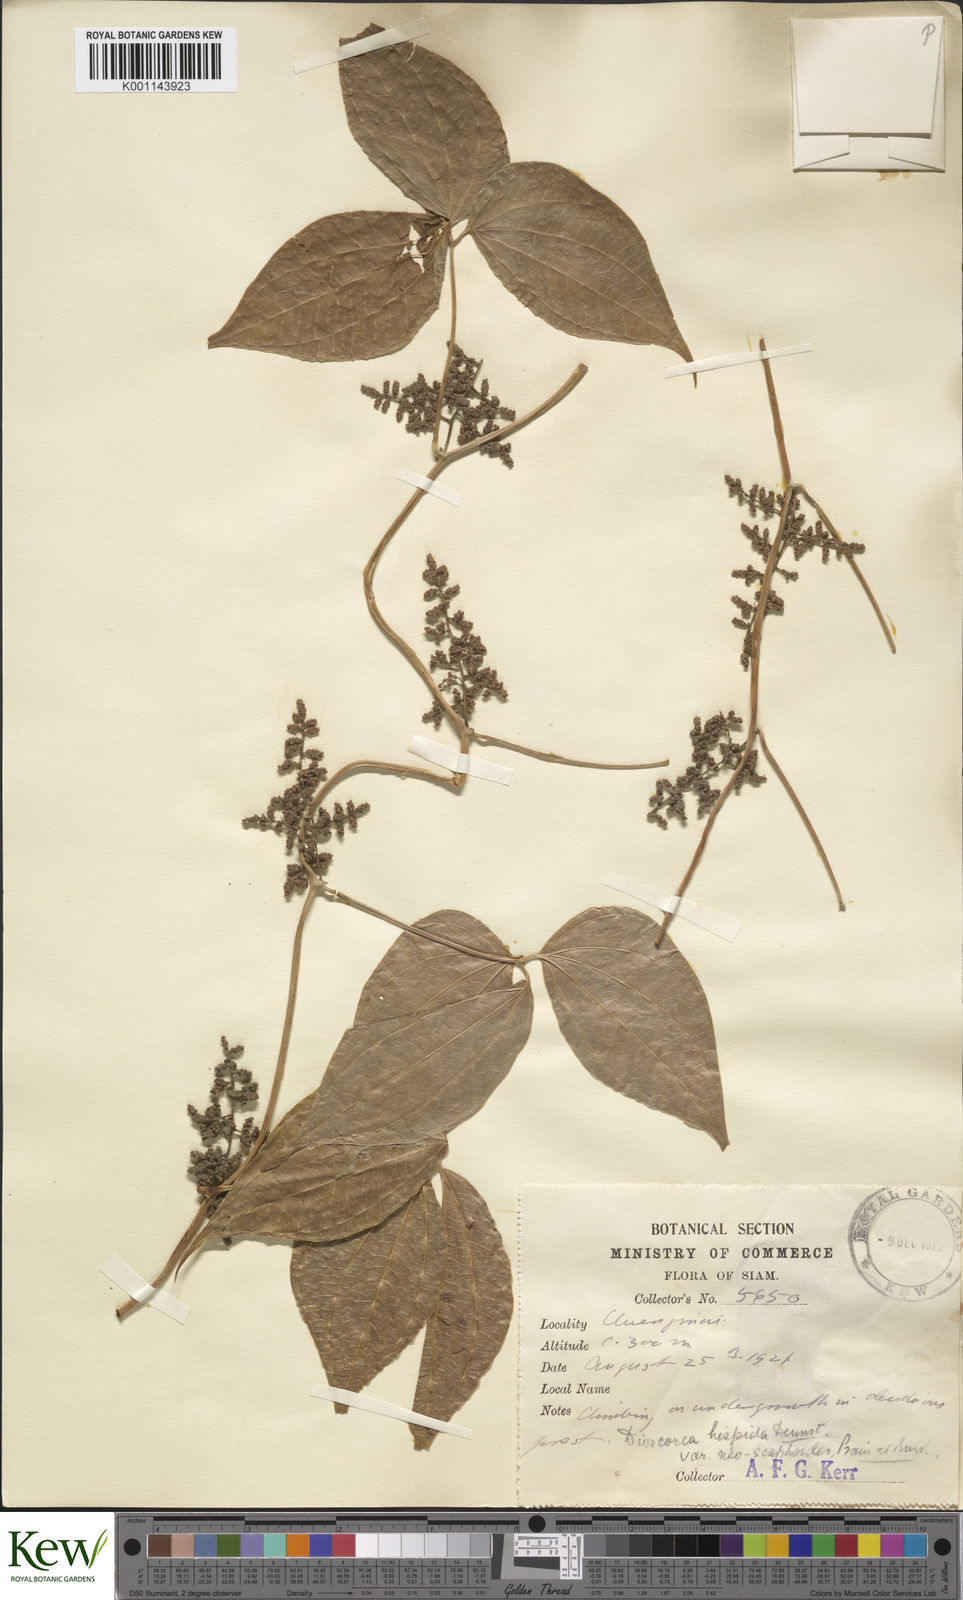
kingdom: Plantae
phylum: Tracheophyta
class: Liliopsida
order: Dioscoreales
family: Dioscoreaceae
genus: Dioscorea
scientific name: Dioscorea hispida
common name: Asiatic bitter yam
